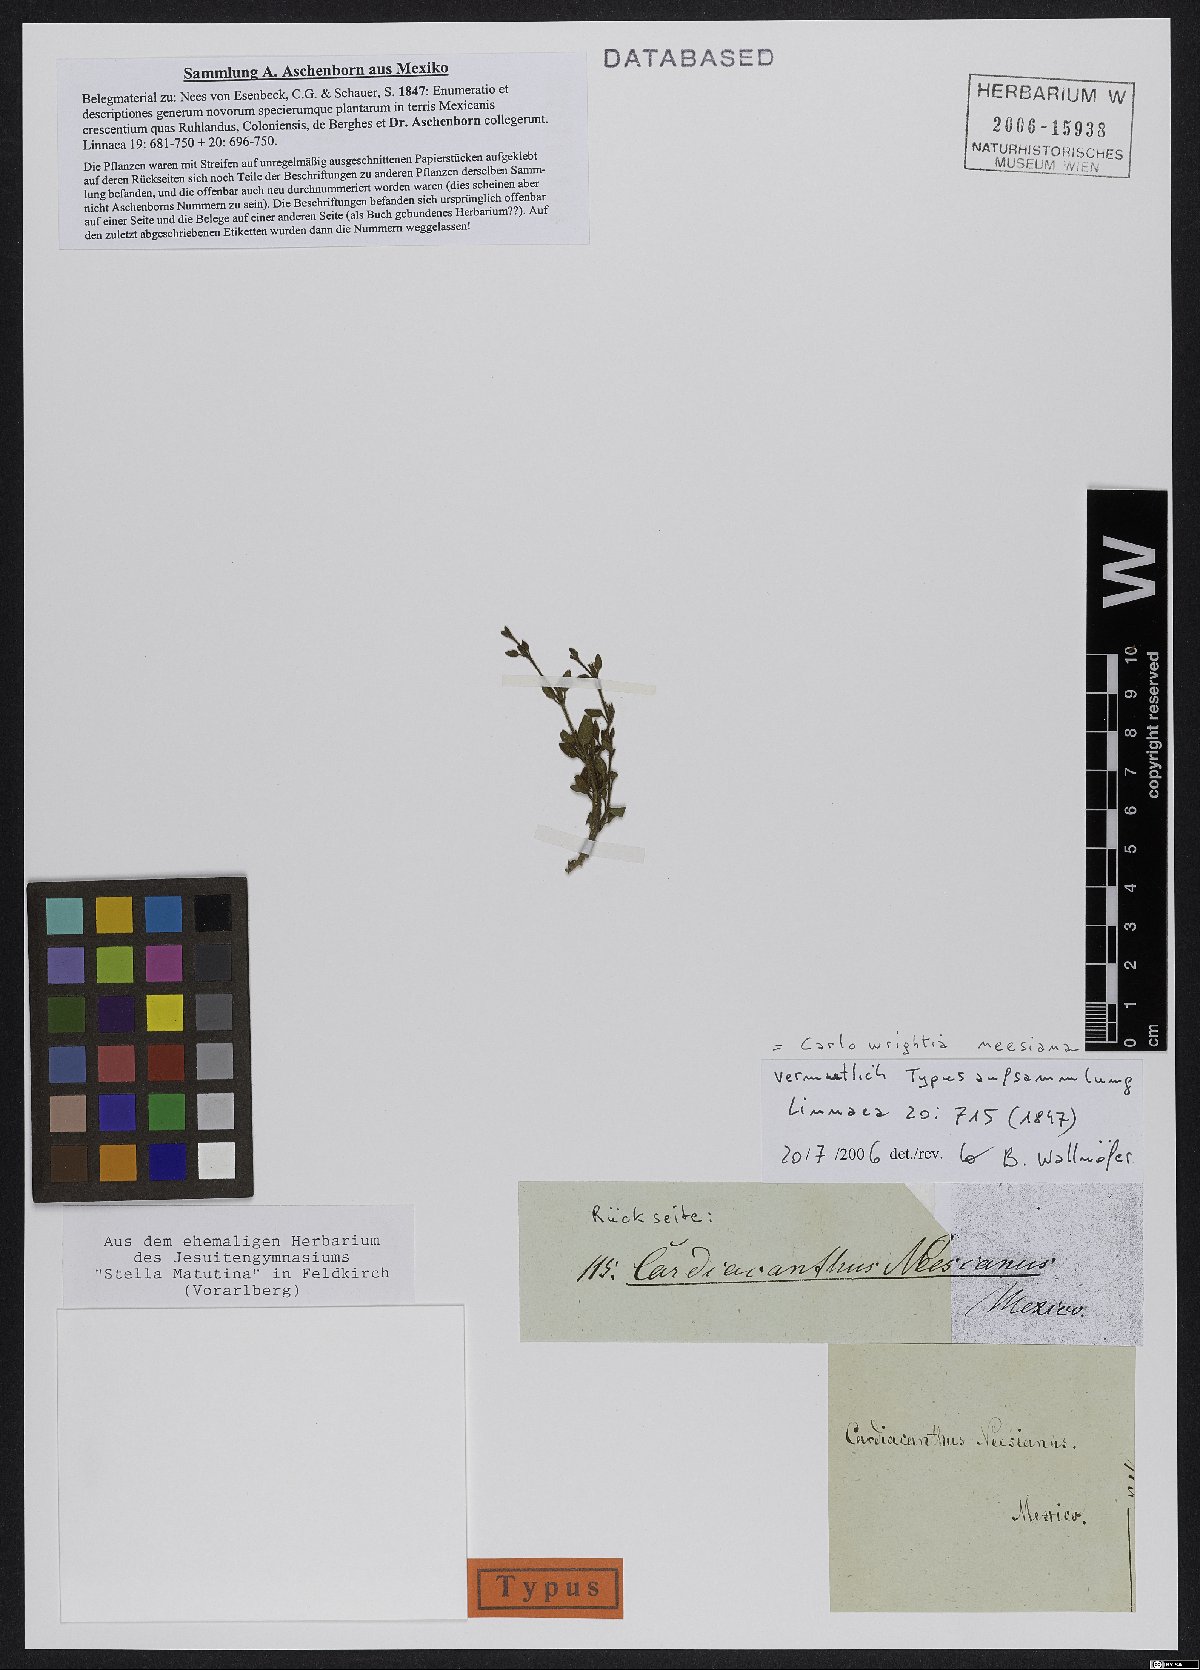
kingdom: Plantae
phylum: Tracheophyta
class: Magnoliopsida
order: Lamiales
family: Acanthaceae
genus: Carlowrightia
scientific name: Carlowrightia neesiana
